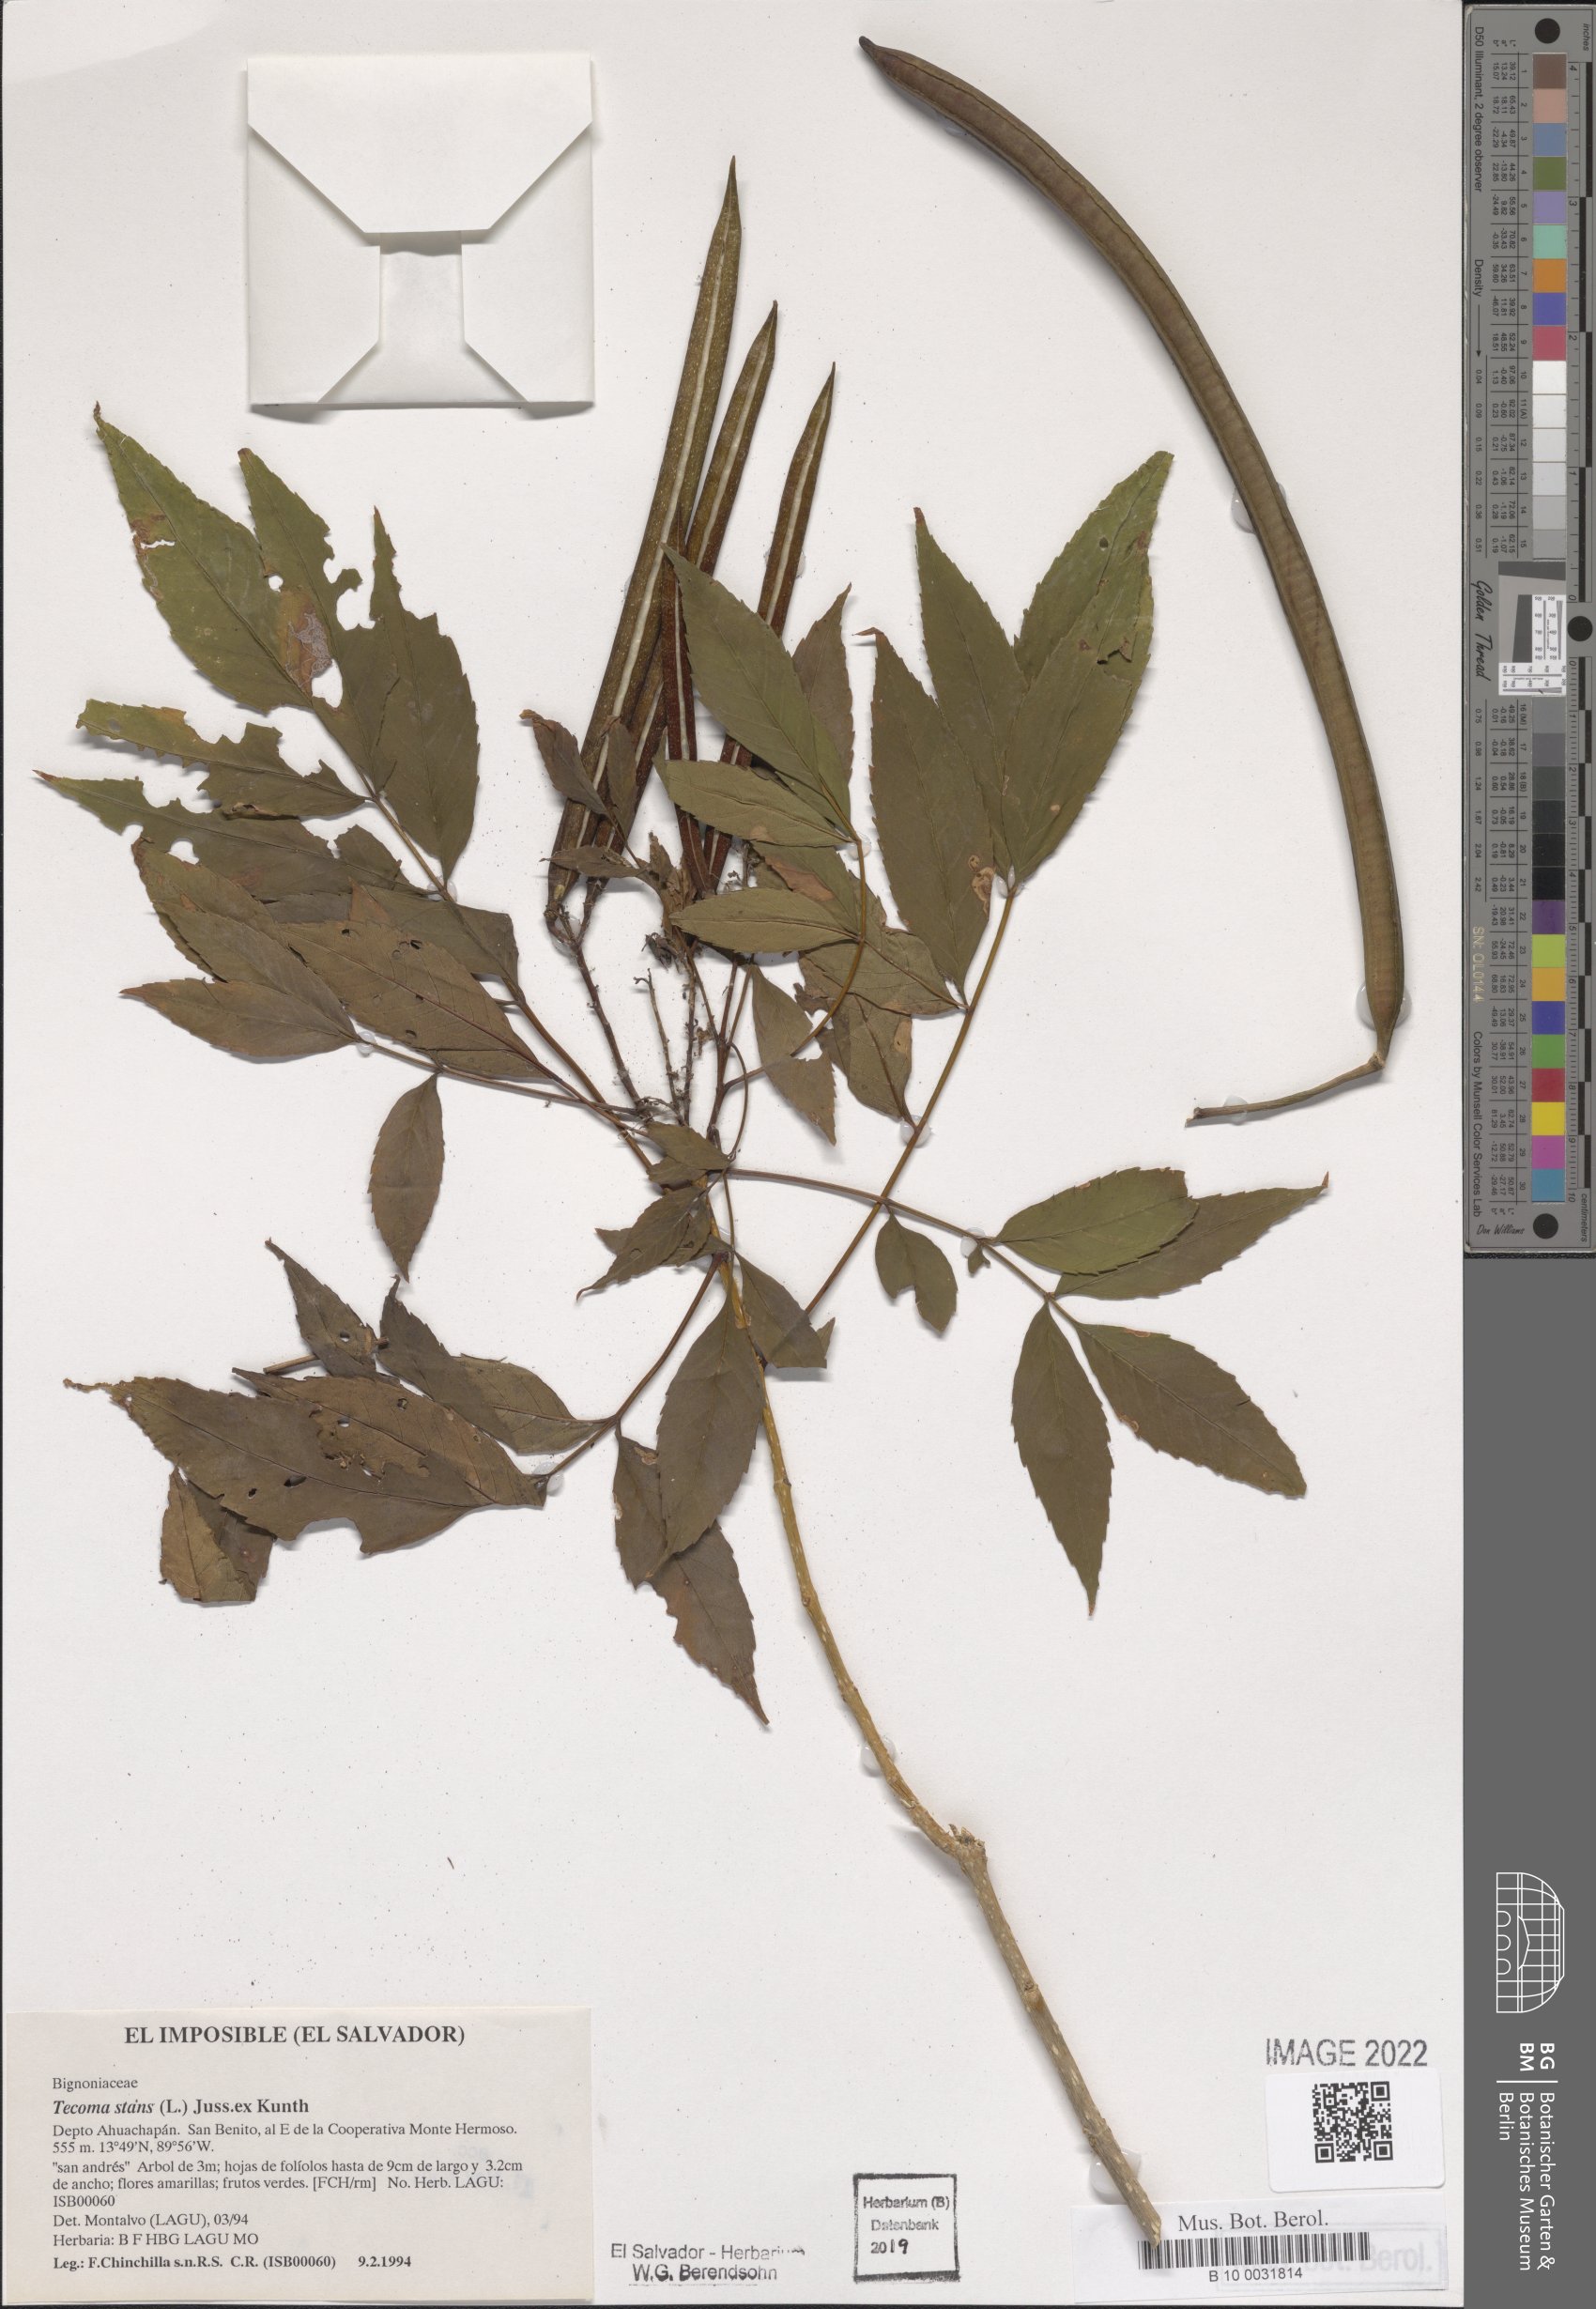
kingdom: Plantae
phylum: Tracheophyta
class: Magnoliopsida
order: Lamiales
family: Bignoniaceae
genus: Tecoma
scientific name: Tecoma stans
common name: Yellow trumpetbush
